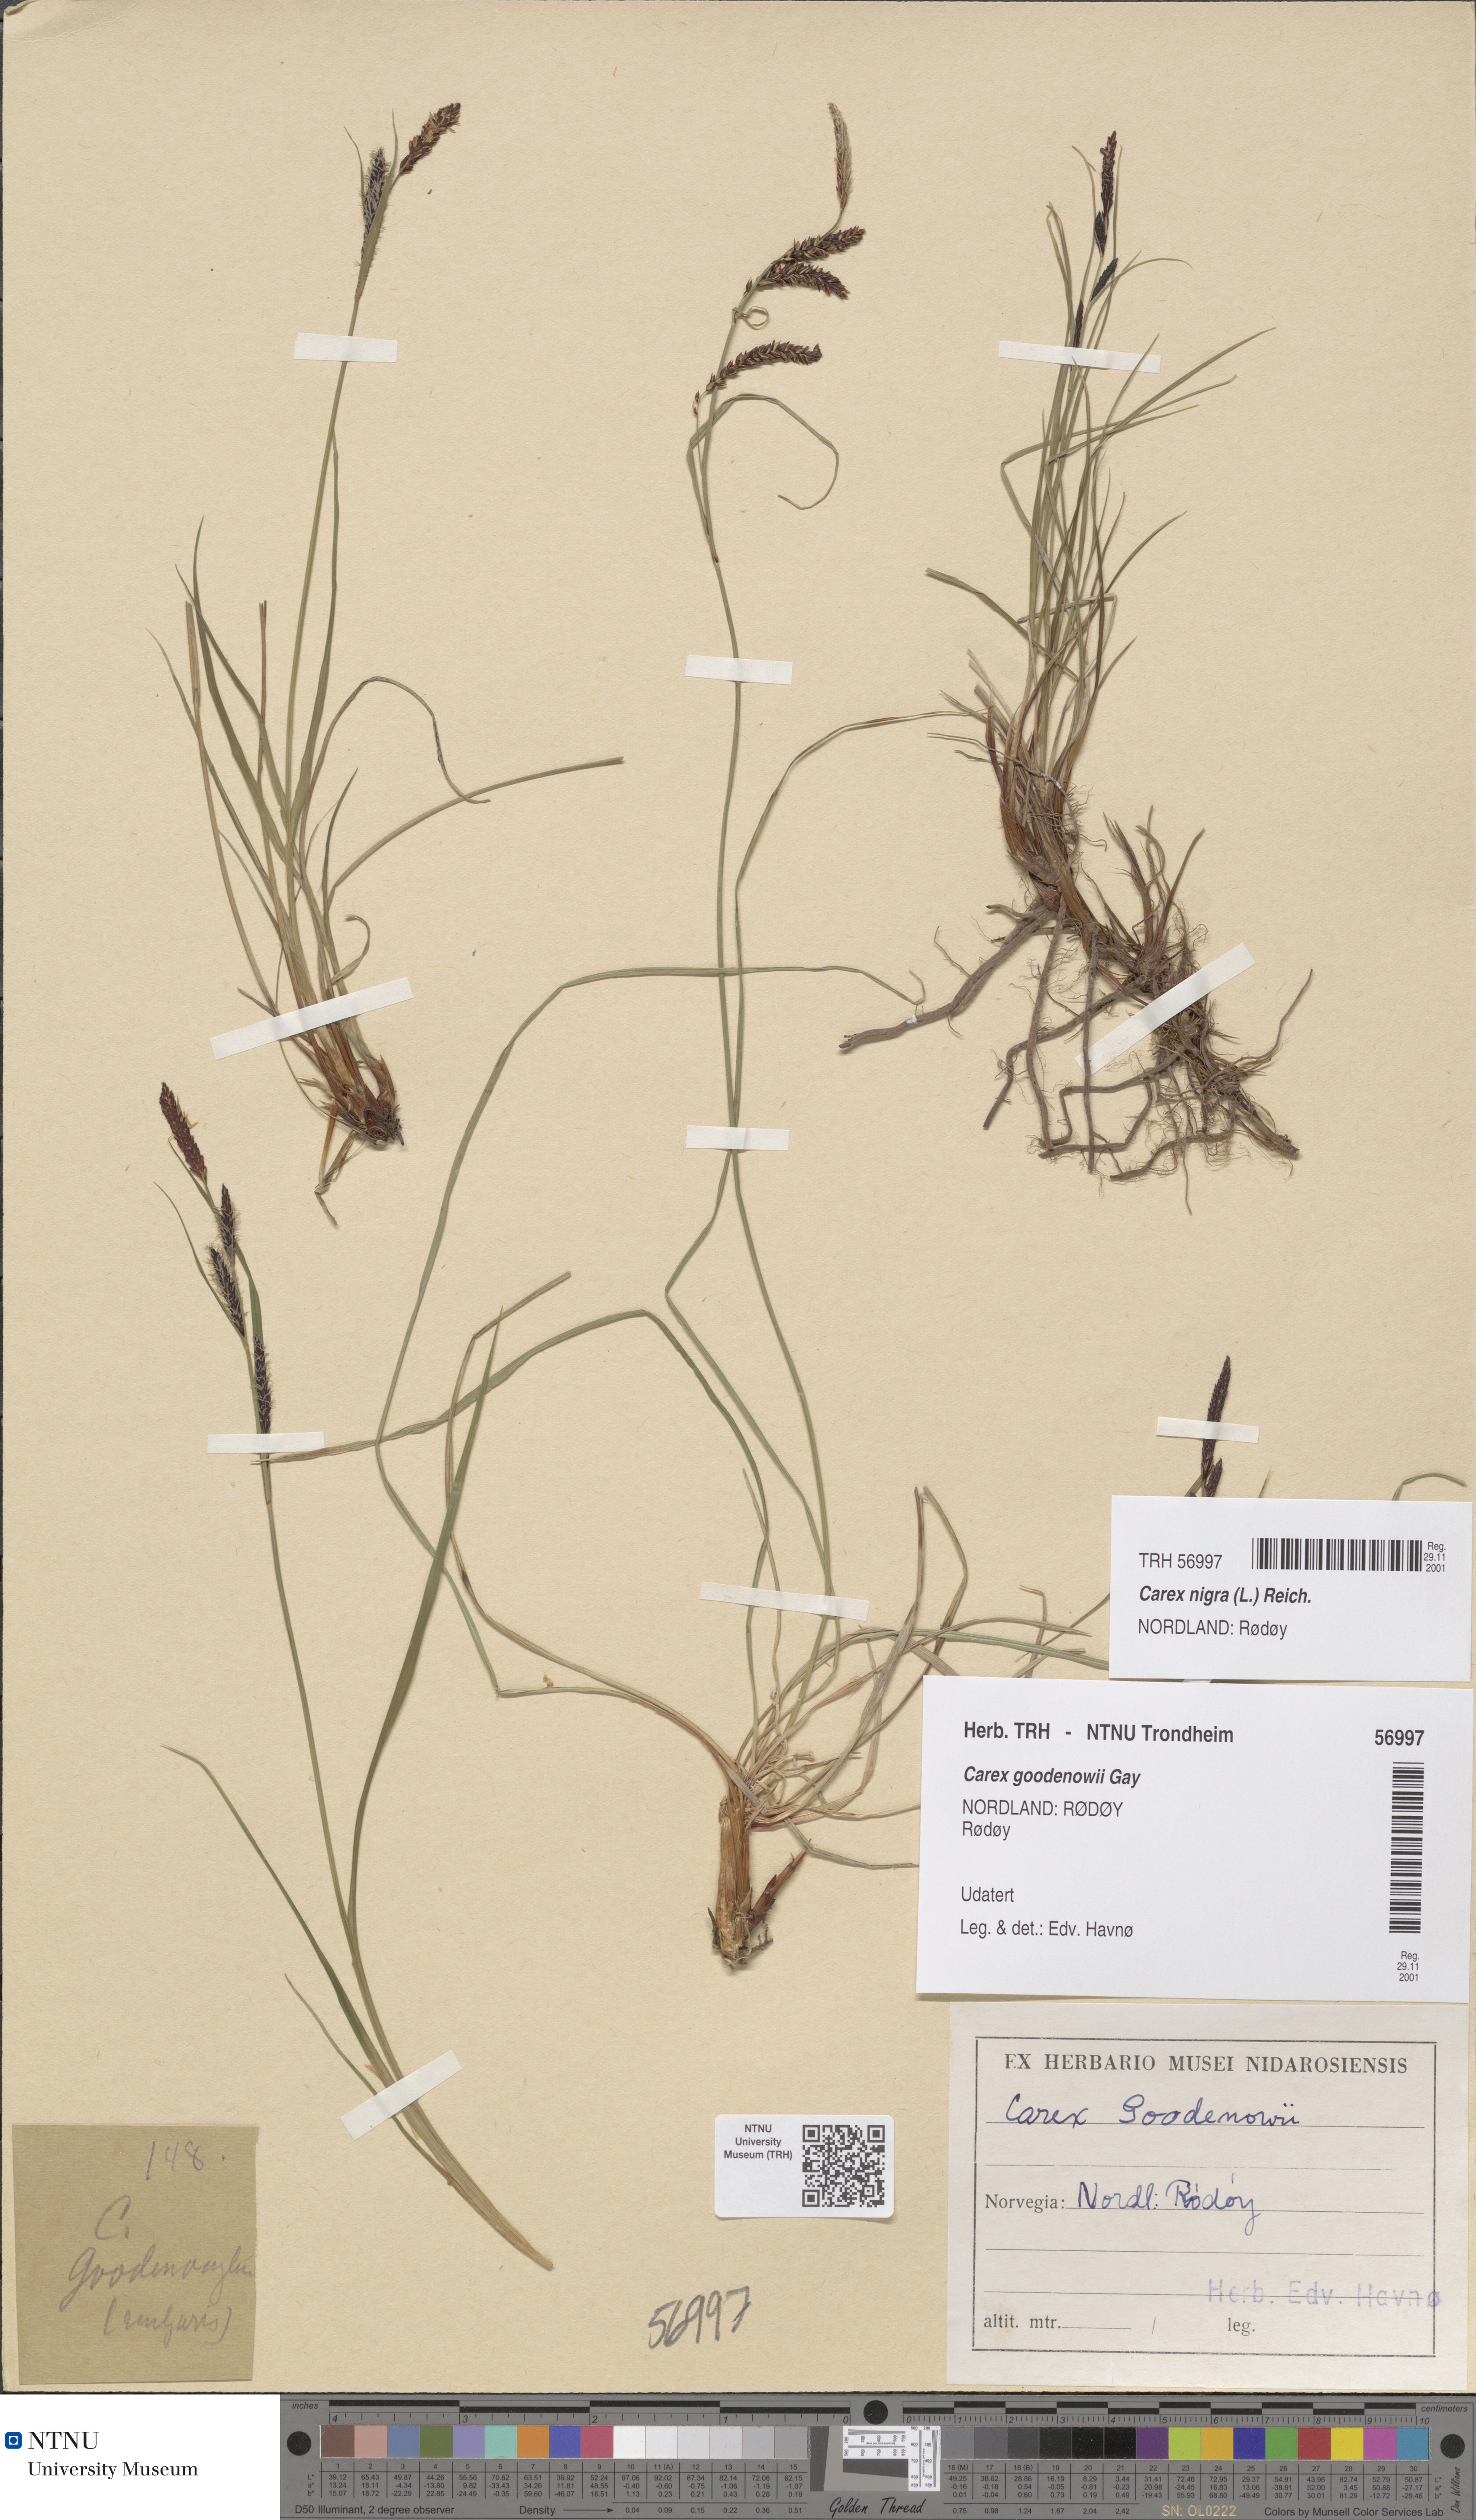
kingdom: Plantae
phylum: Tracheophyta
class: Liliopsida
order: Poales
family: Cyperaceae
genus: Carex
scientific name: Carex nigra
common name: Common sedge
